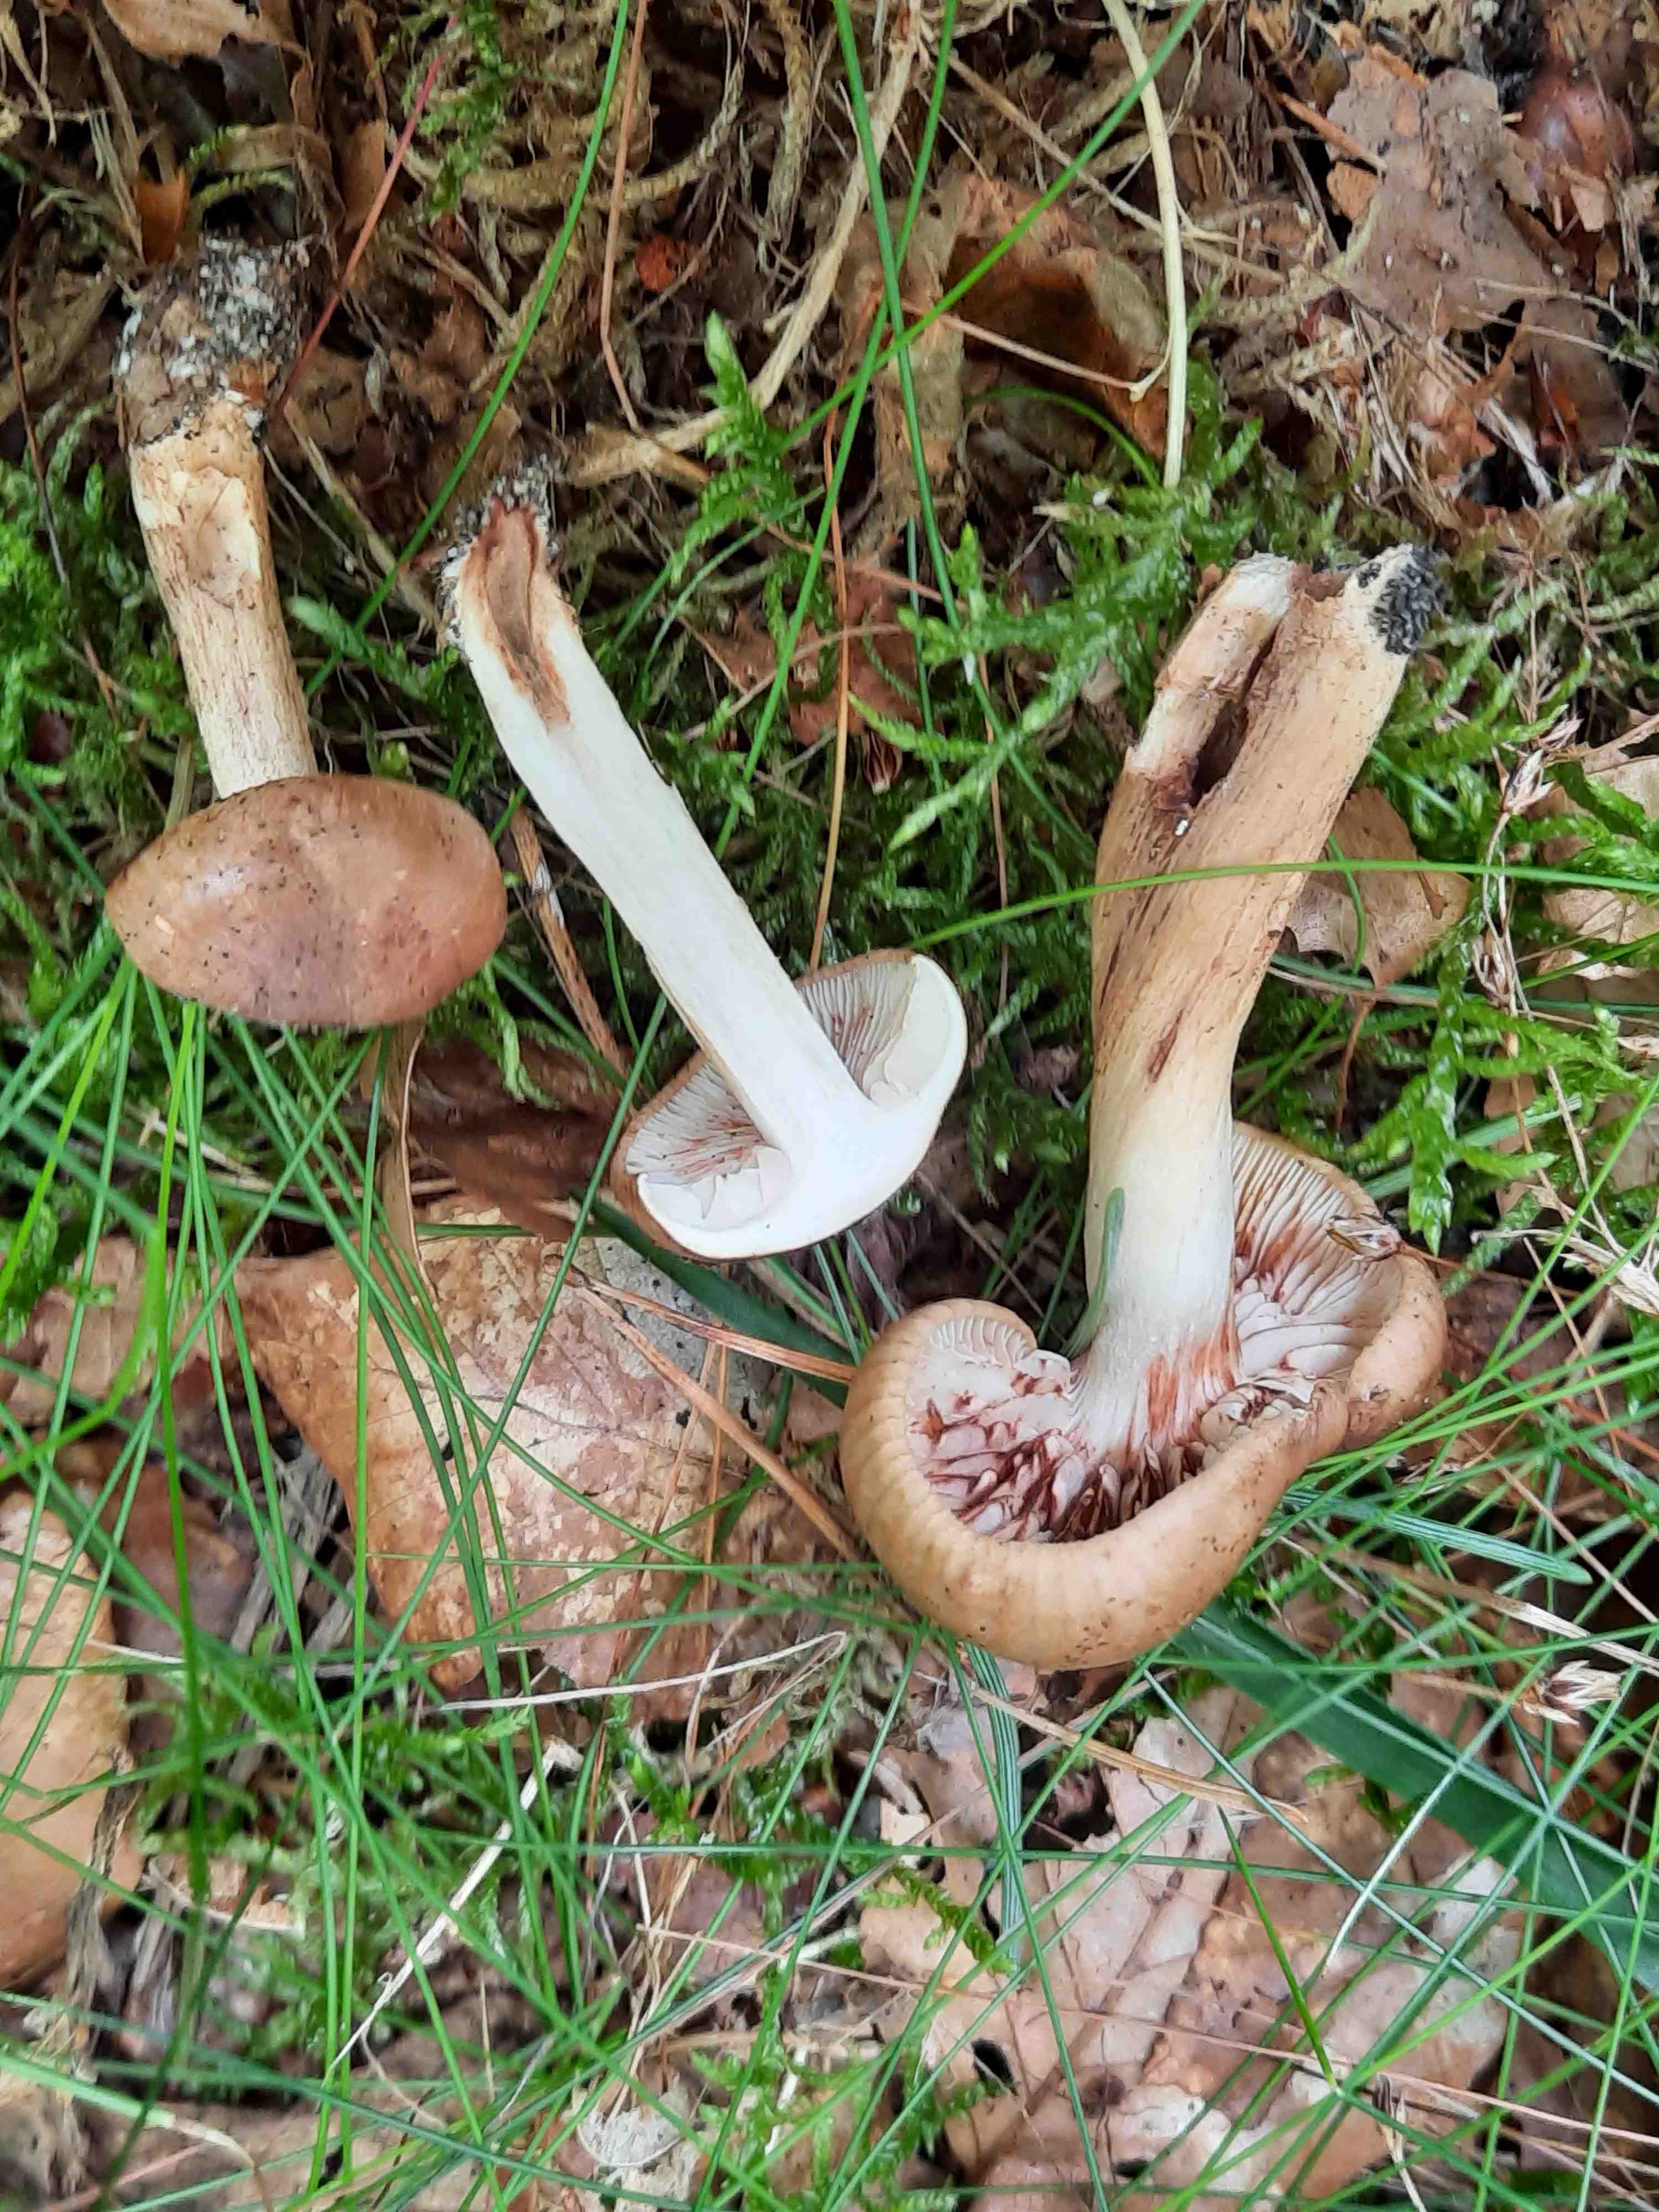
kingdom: Fungi
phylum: Basidiomycota
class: Agaricomycetes
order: Agaricales
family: Tricholomataceae
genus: Tricholoma
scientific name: Tricholoma ustale
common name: sveden ridderhat
